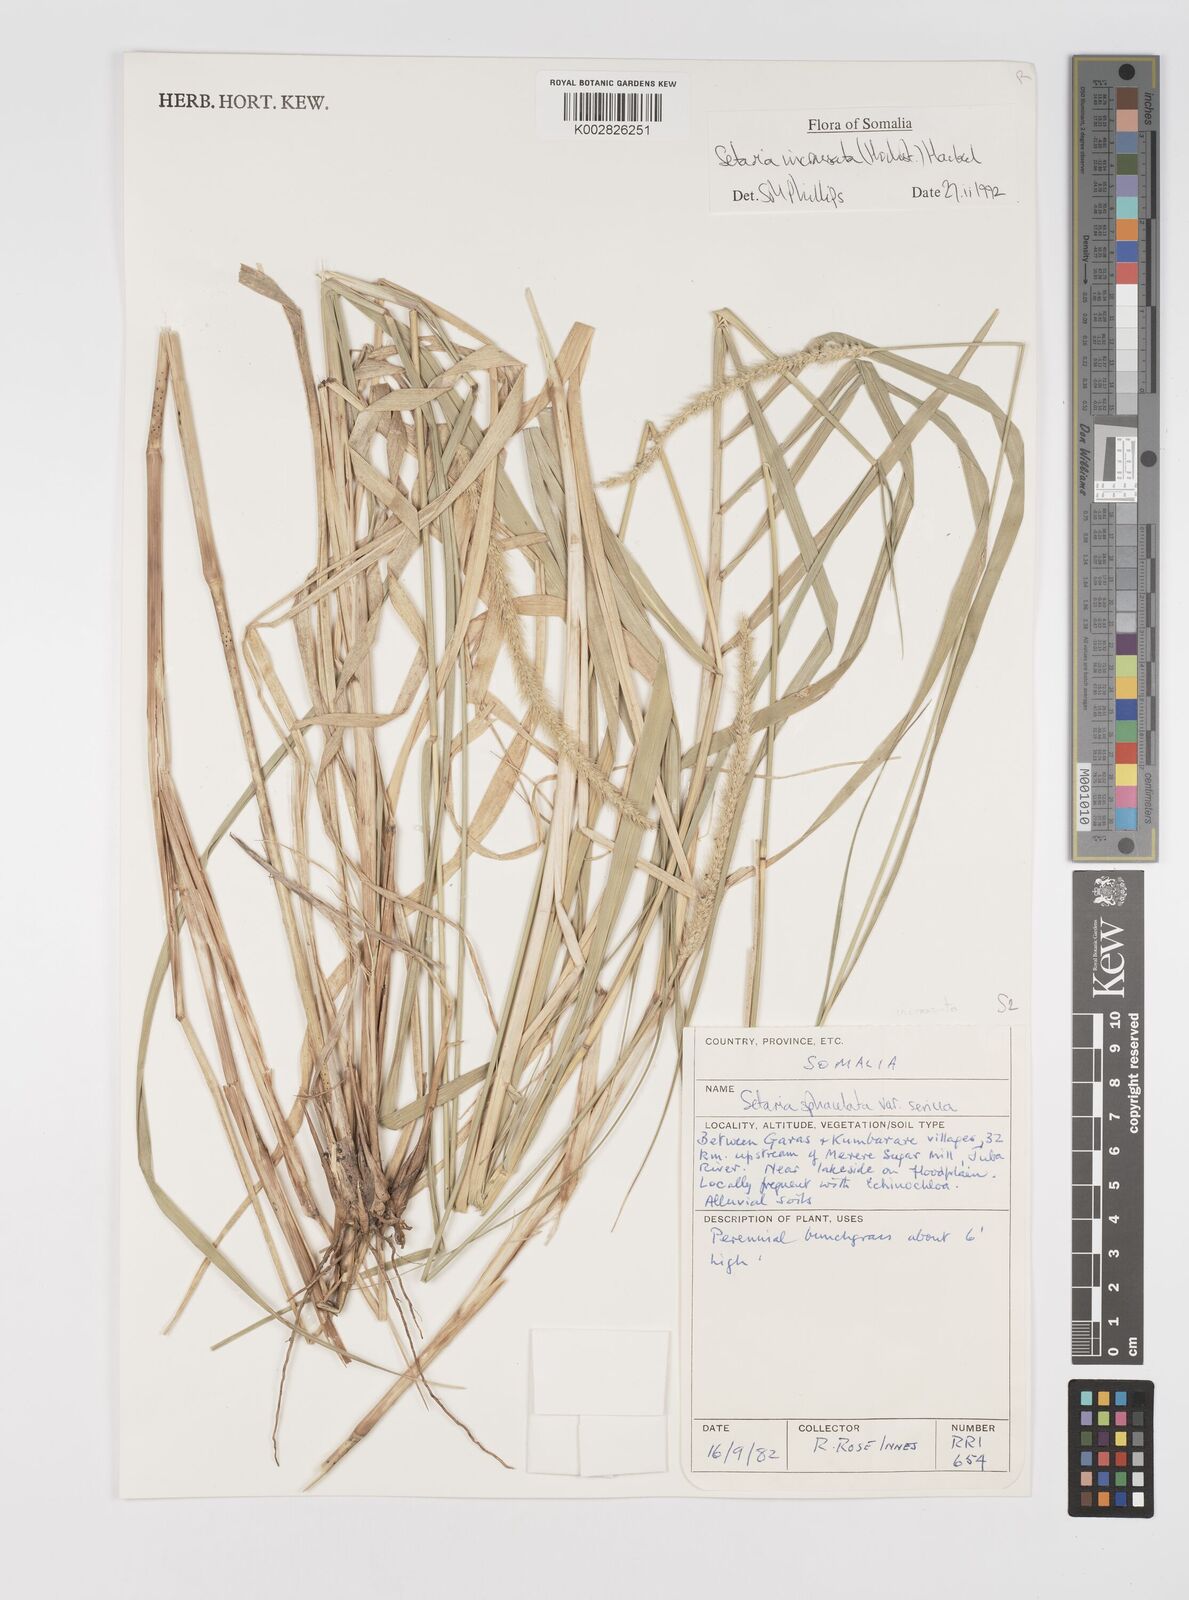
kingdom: Plantae
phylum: Tracheophyta
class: Liliopsida
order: Poales
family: Poaceae
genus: Setaria
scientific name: Setaria incrassata
